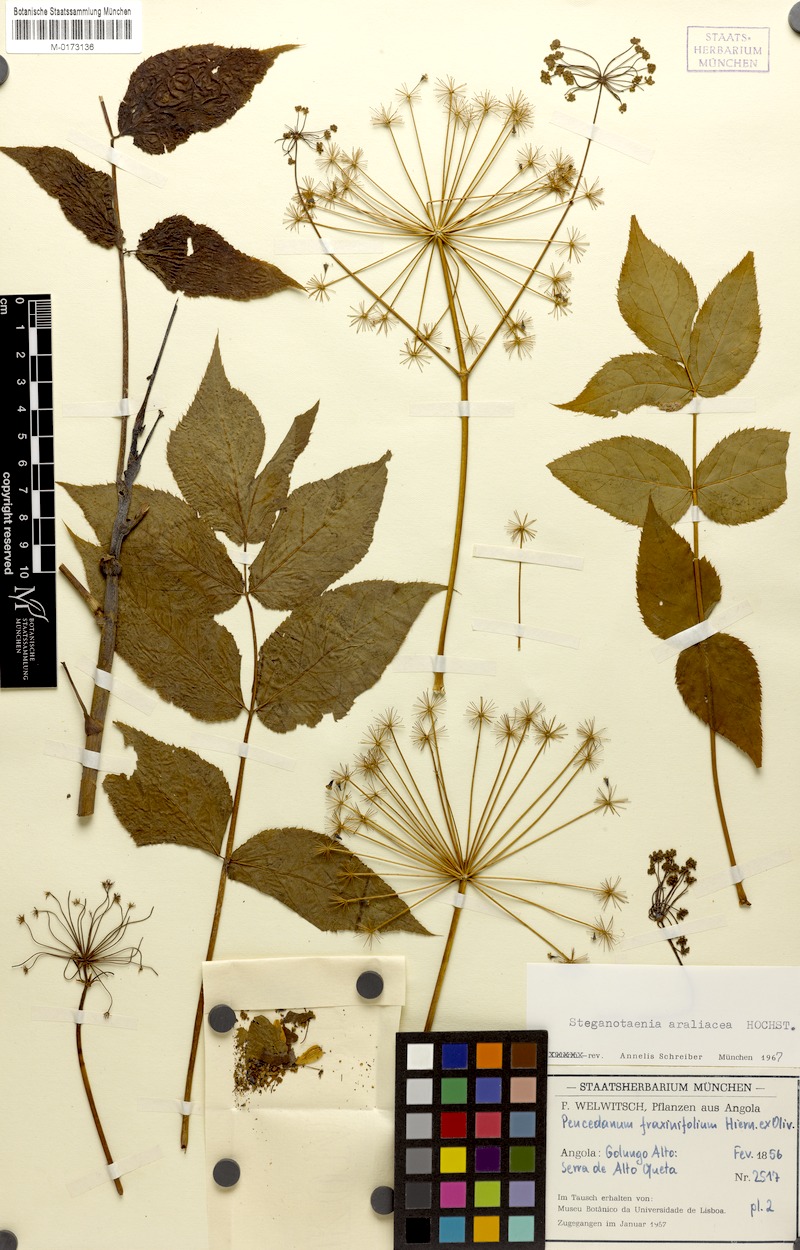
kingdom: Plantae
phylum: Tracheophyta
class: Magnoliopsida
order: Apiales
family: Apiaceae
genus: Steganotaenia
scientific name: Steganotaenia araliacea
